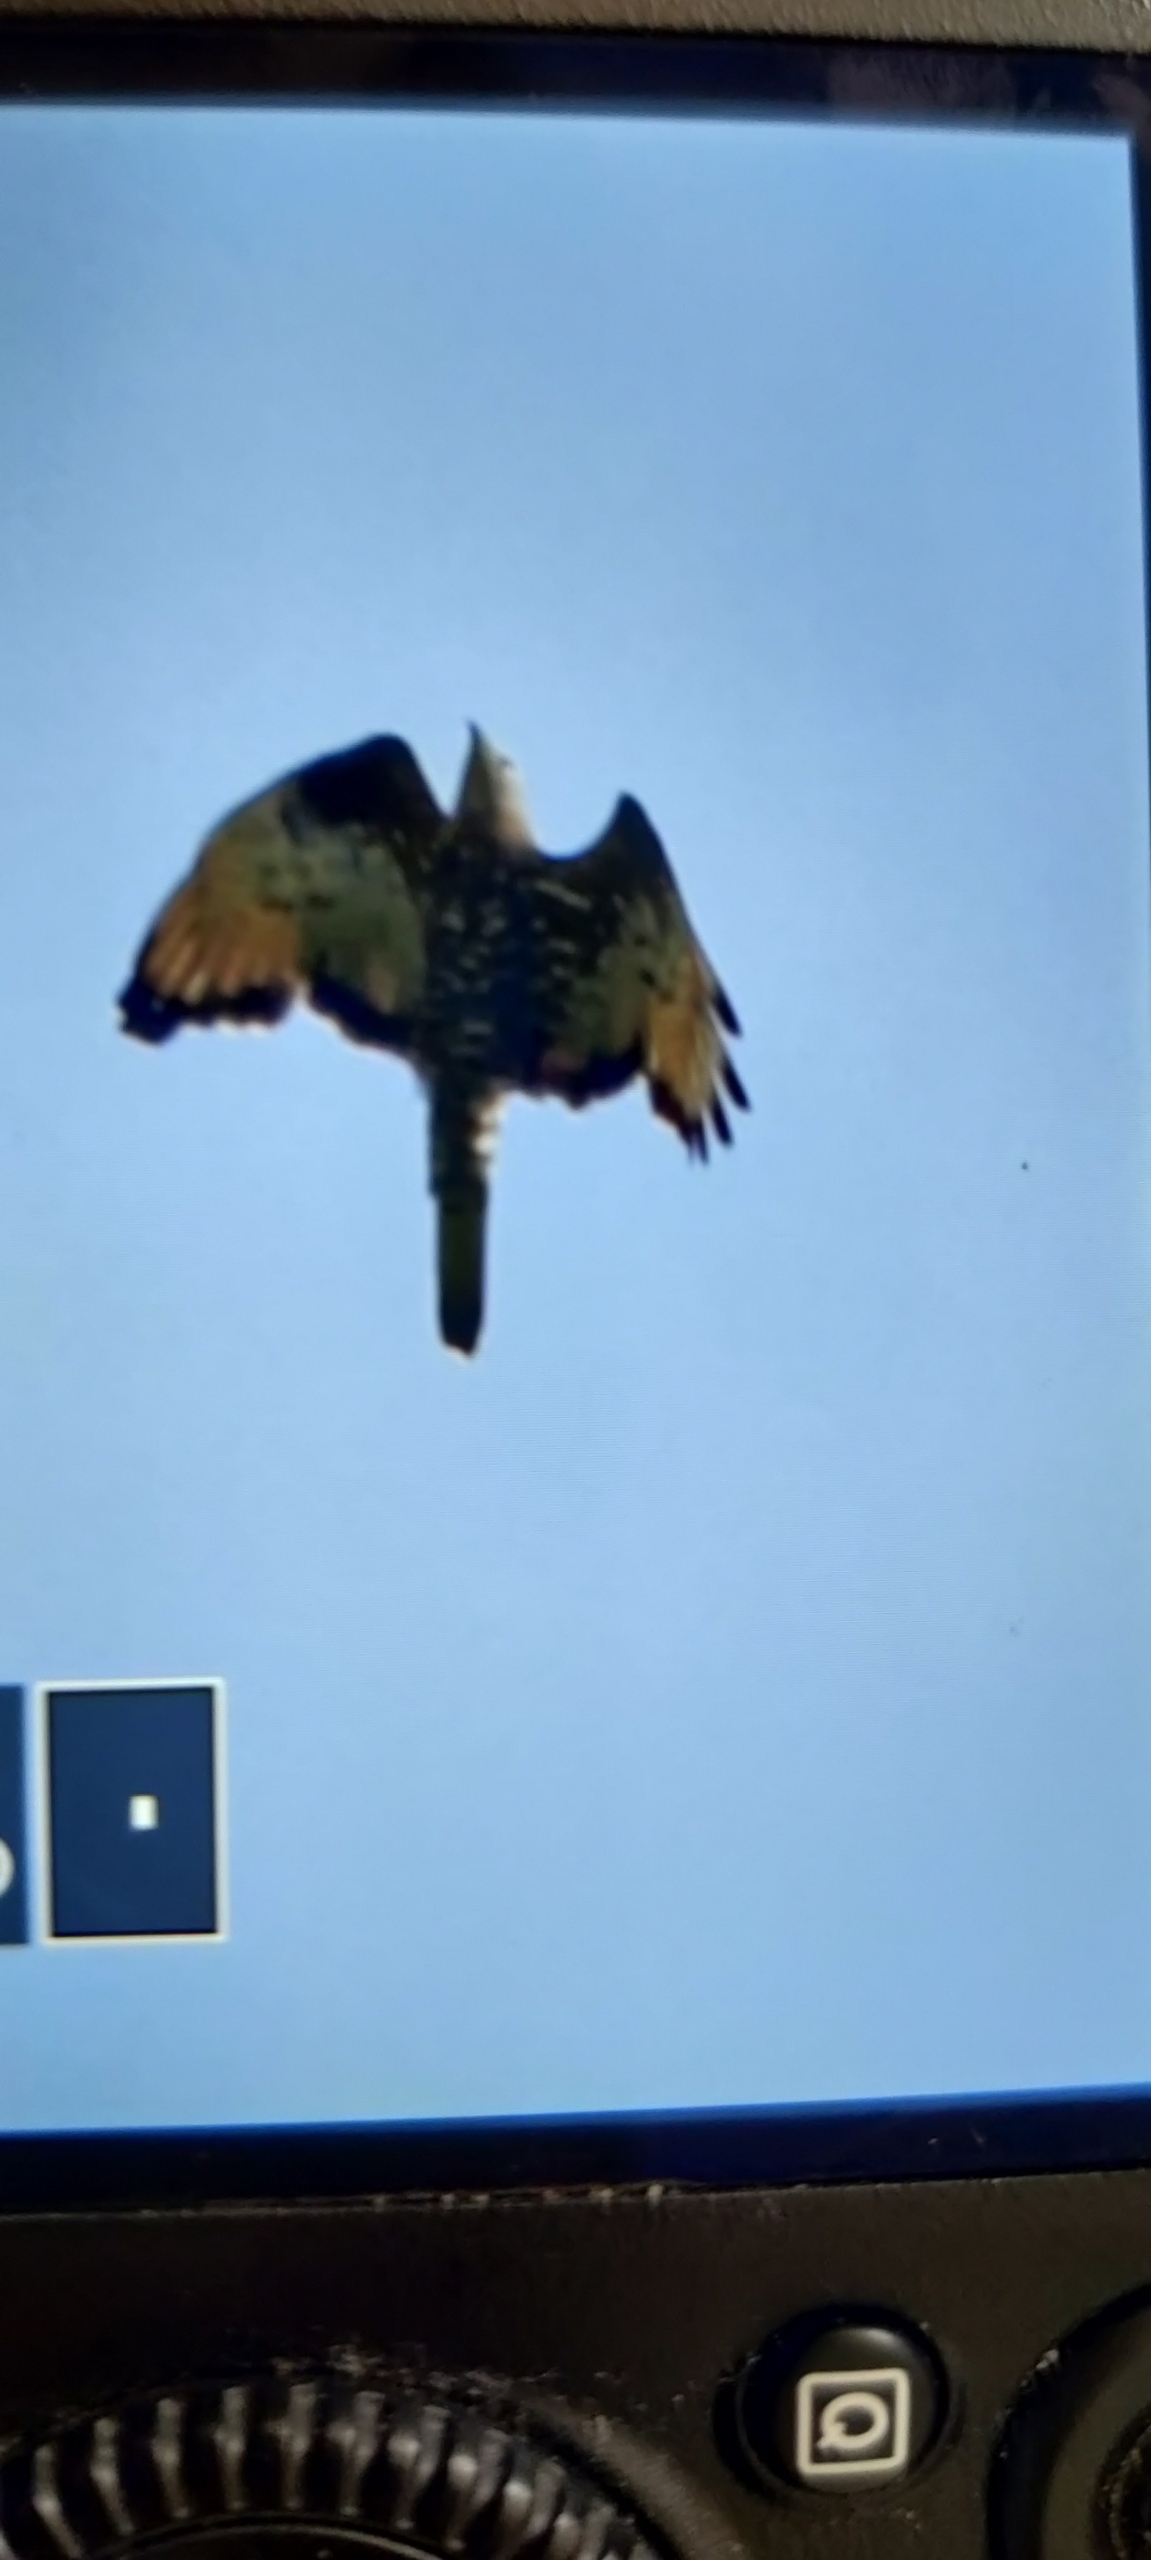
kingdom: Animalia
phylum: Chordata
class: Aves
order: Accipitriformes
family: Accipitridae
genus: Pernis
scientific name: Pernis apivorus
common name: Hvepsevåge
